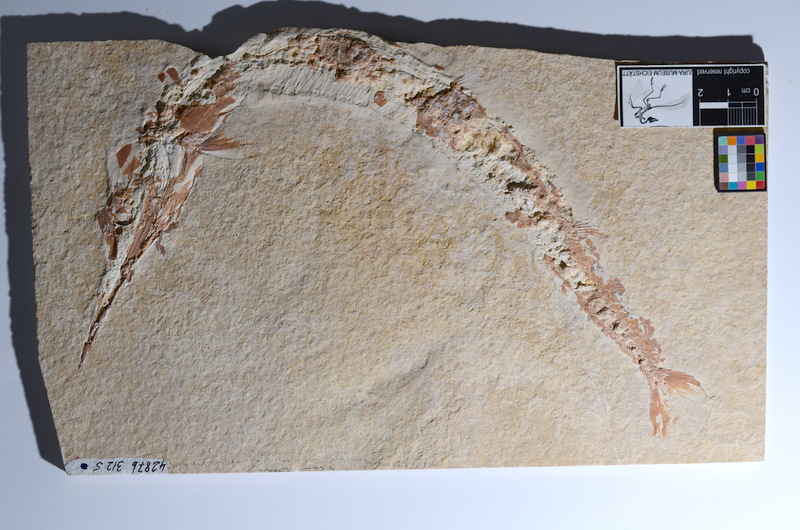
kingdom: Animalia
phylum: Chordata
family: Aspidorhynchidae
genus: Belonostomus
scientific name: Belonostomus
